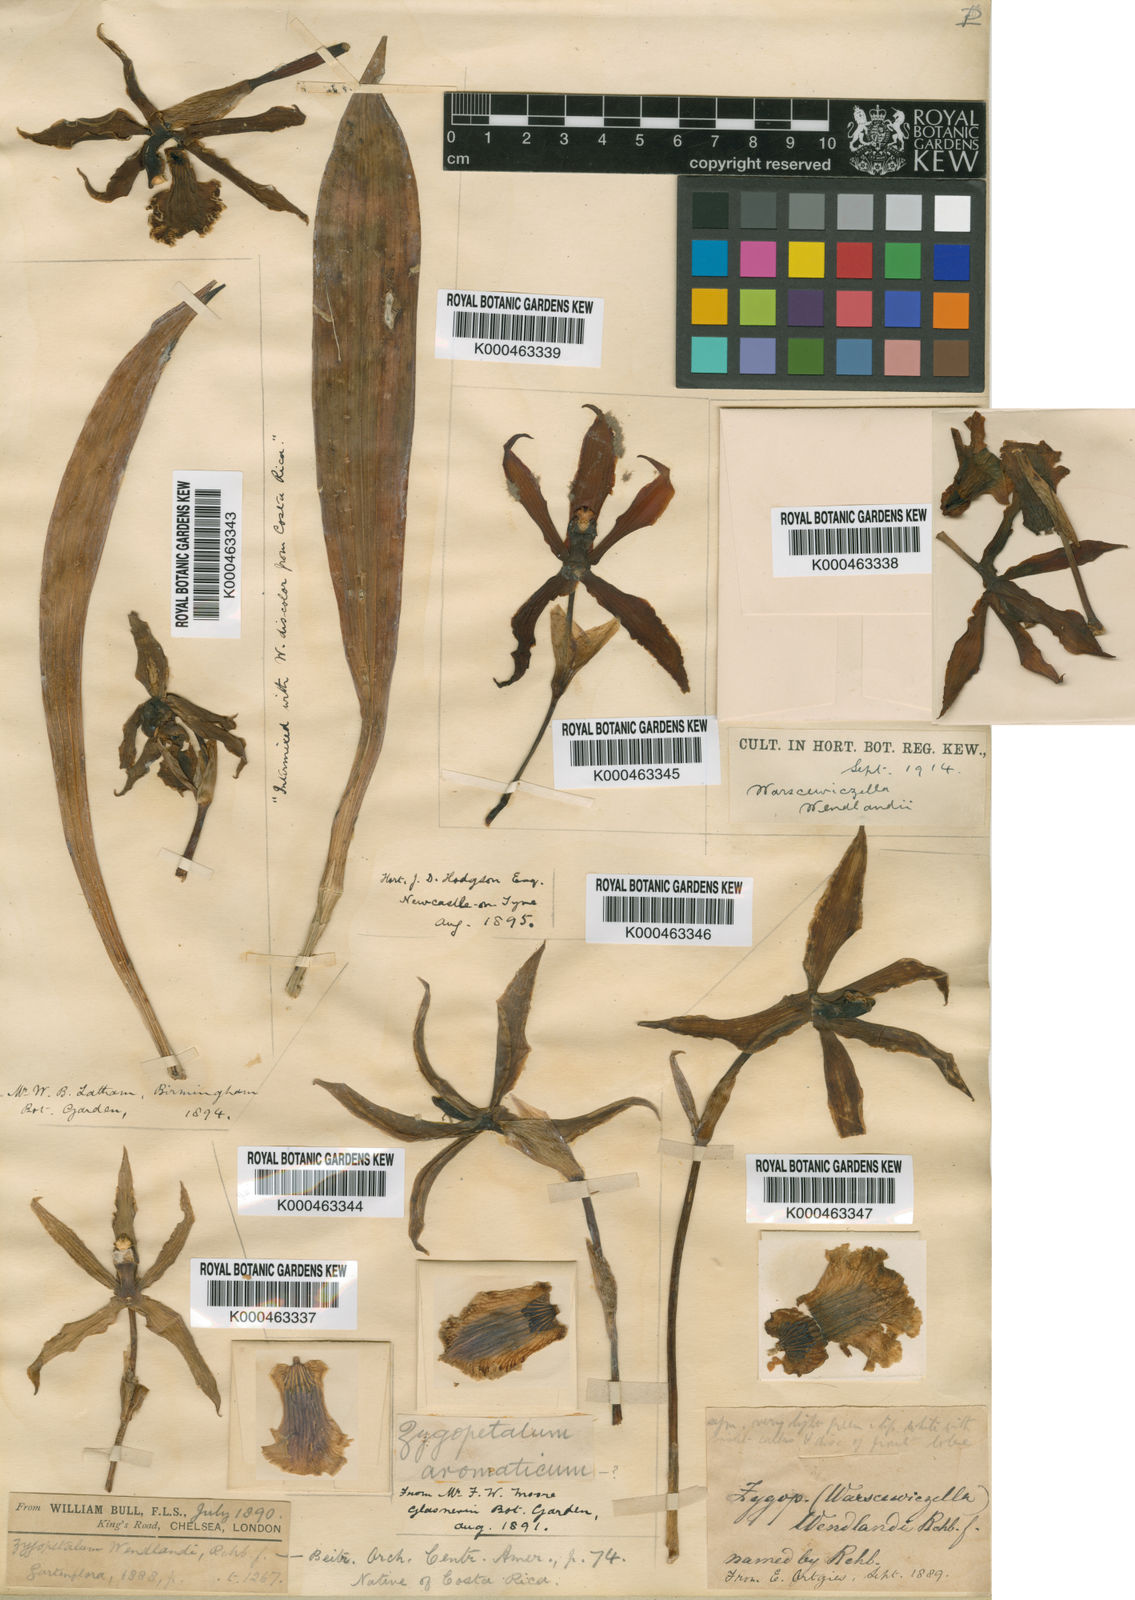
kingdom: Plantae
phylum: Tracheophyta
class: Liliopsida
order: Asparagales
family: Orchidaceae
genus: Cochleanthes
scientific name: Cochleanthes aromatica
